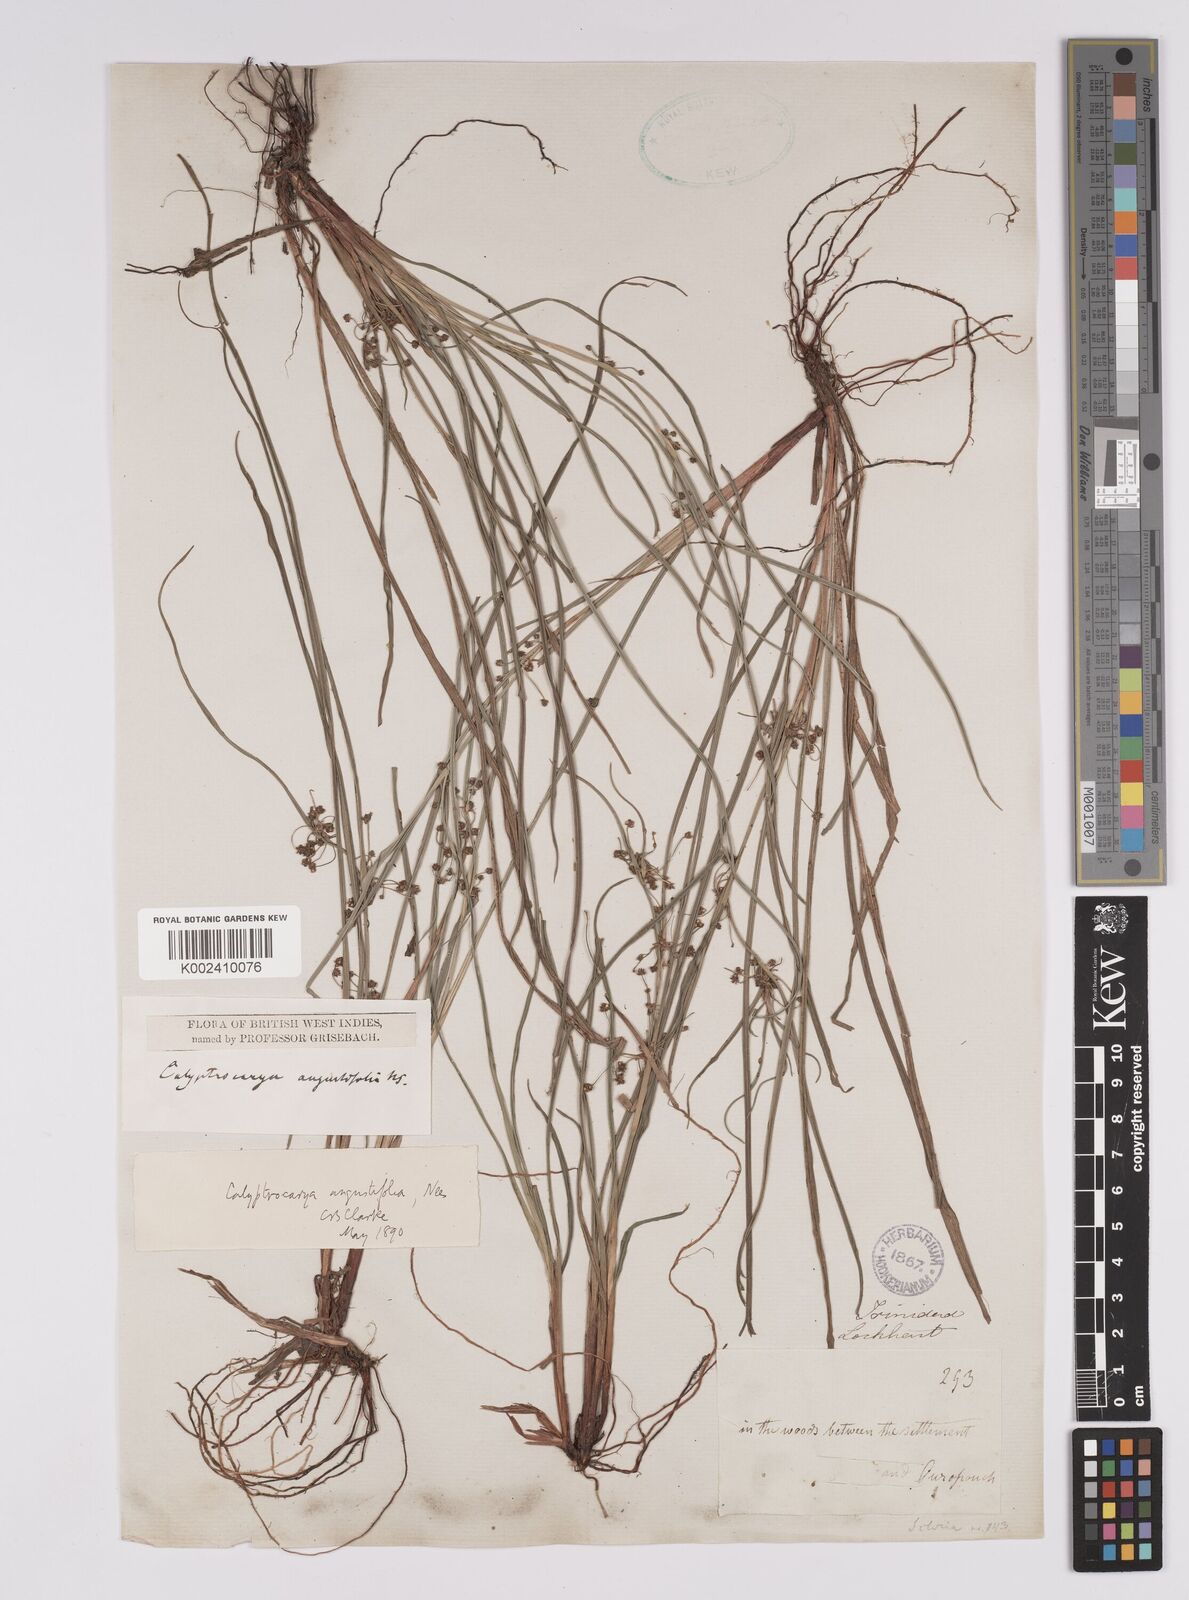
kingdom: Plantae
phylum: Tracheophyta
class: Liliopsida
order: Poales
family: Cyperaceae
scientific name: Cyperaceae
